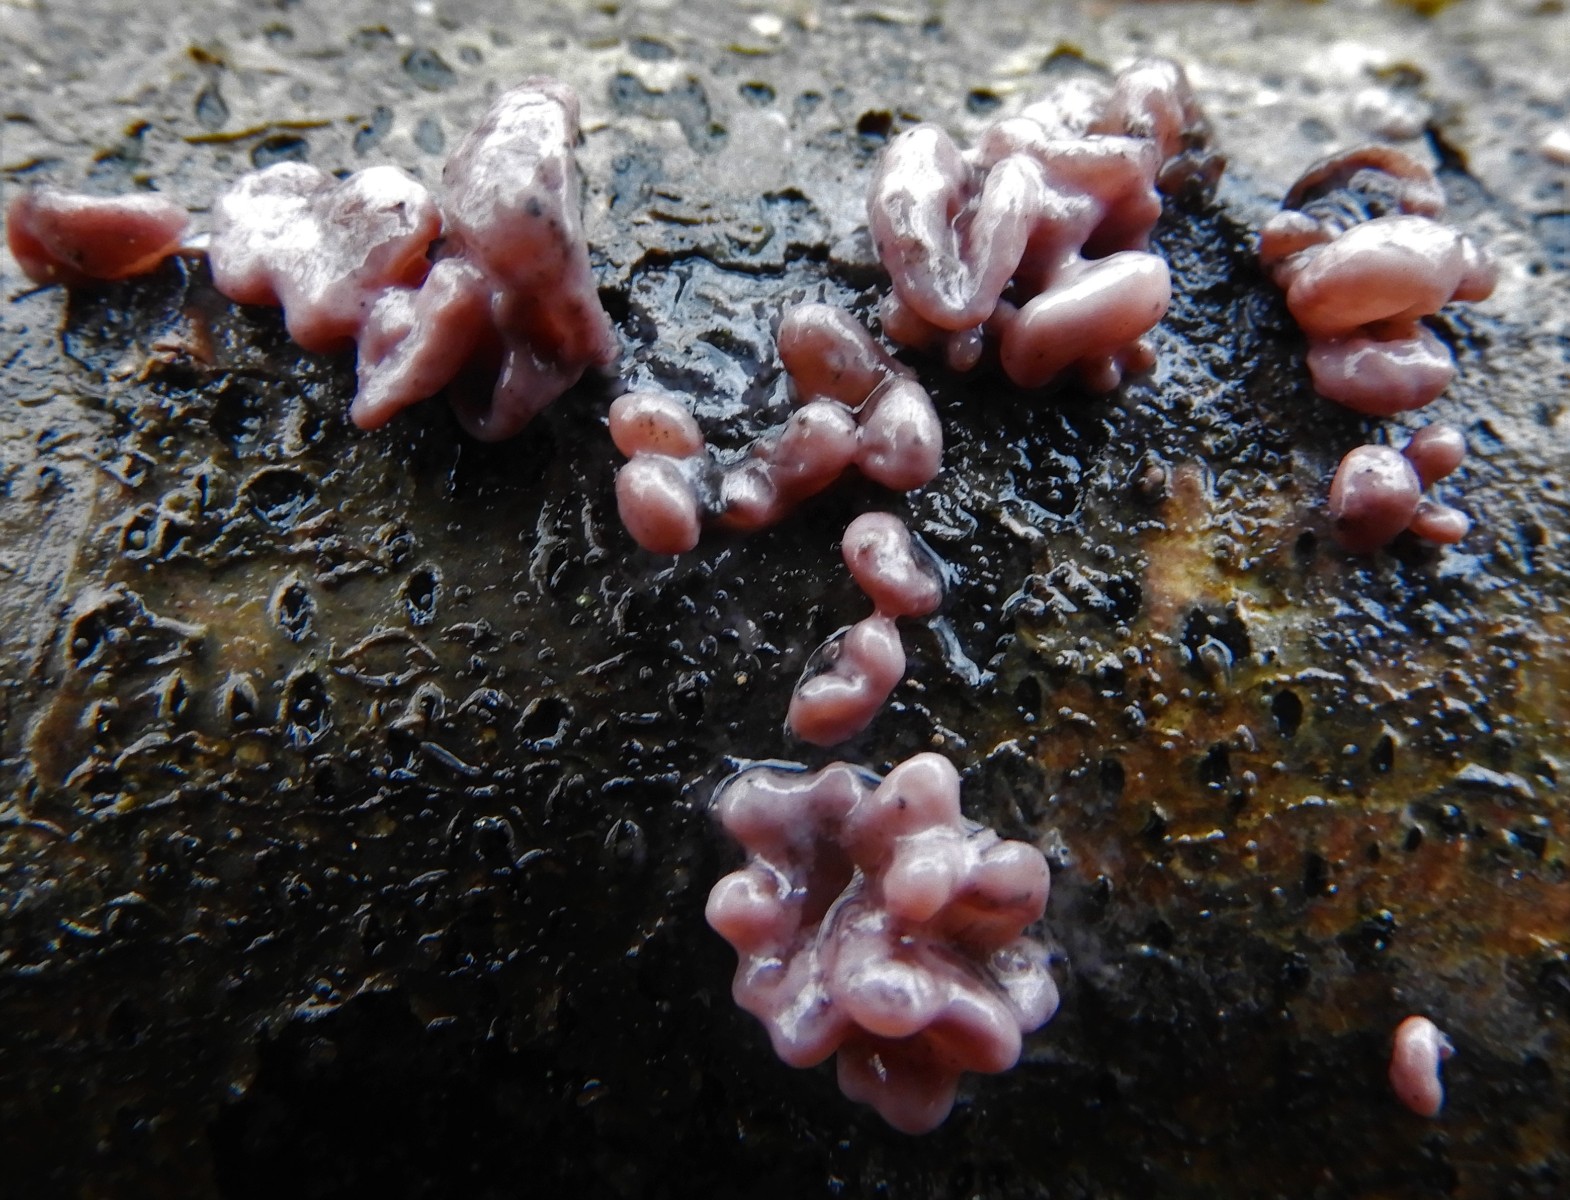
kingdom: Fungi
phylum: Ascomycota
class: Leotiomycetes
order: Helotiales
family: Gelatinodiscaceae
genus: Ascocoryne
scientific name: Ascocoryne sarcoides
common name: rødlilla sejskive
